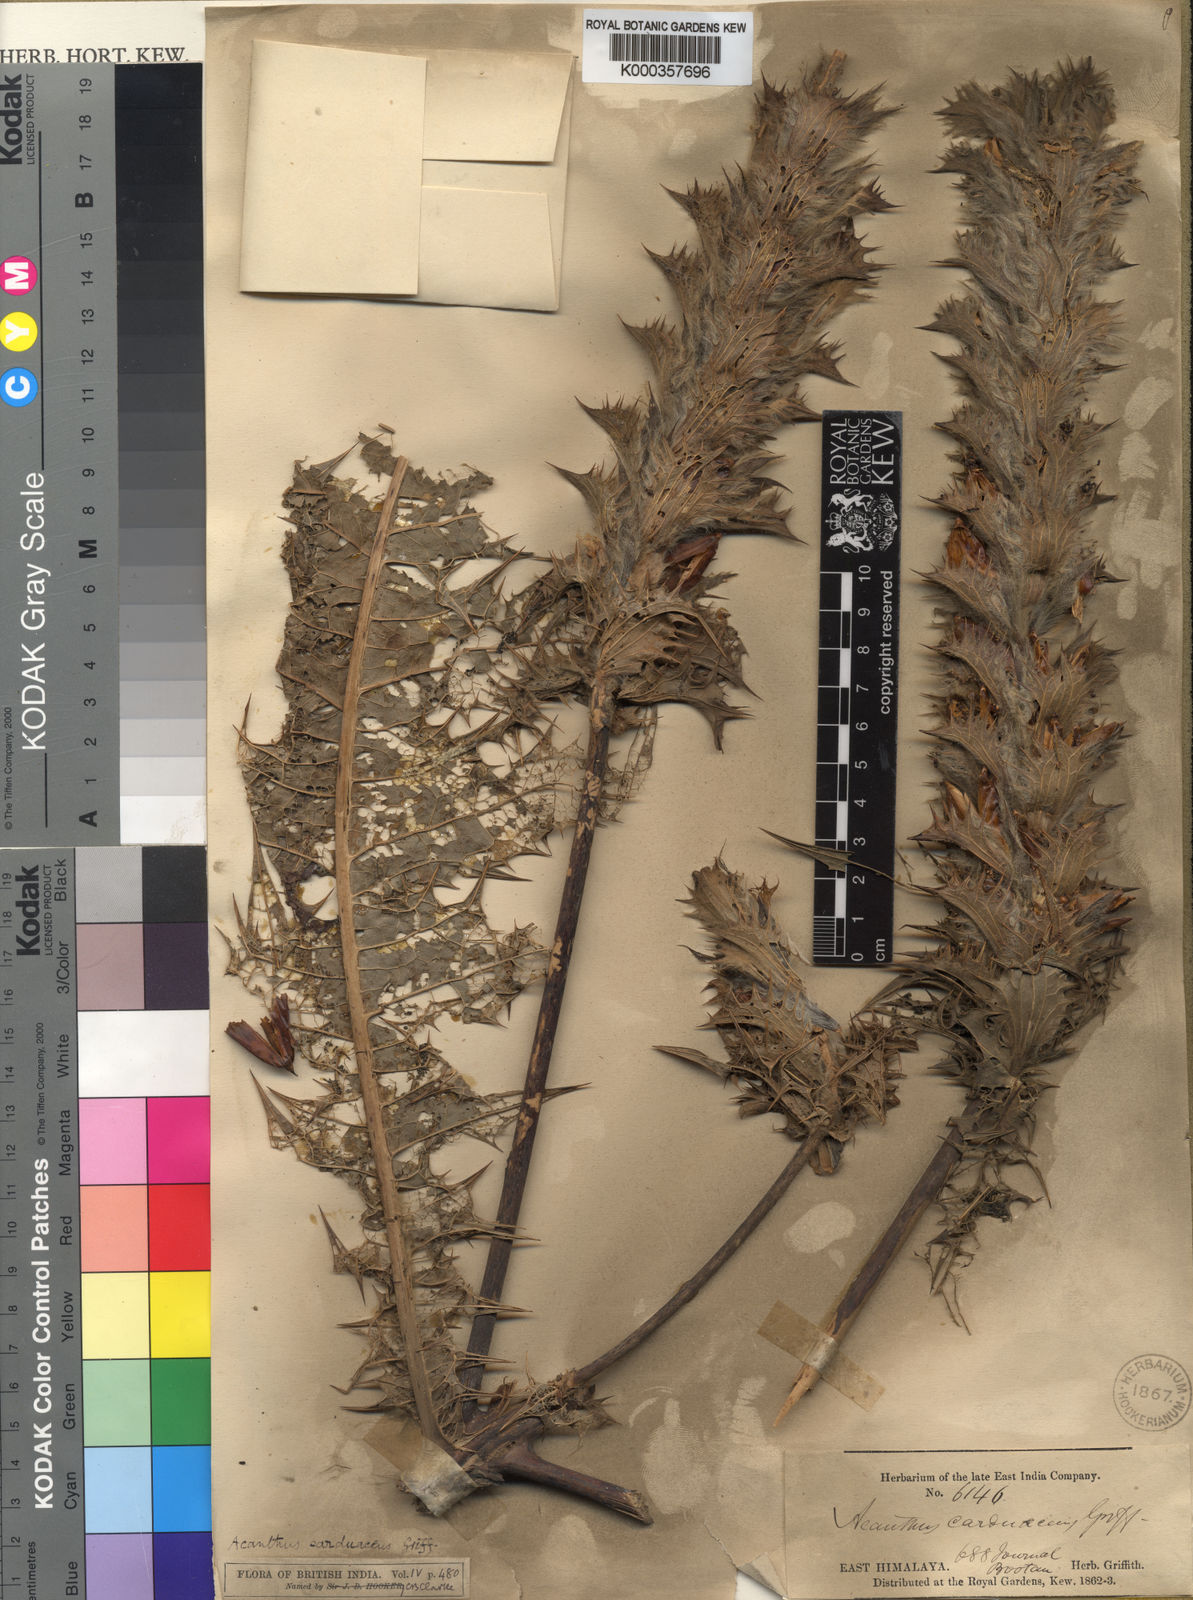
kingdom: Plantae
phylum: Tracheophyta
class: Magnoliopsida
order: Lamiales
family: Acanthaceae
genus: Acanthus
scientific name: Acanthus carduaceus
